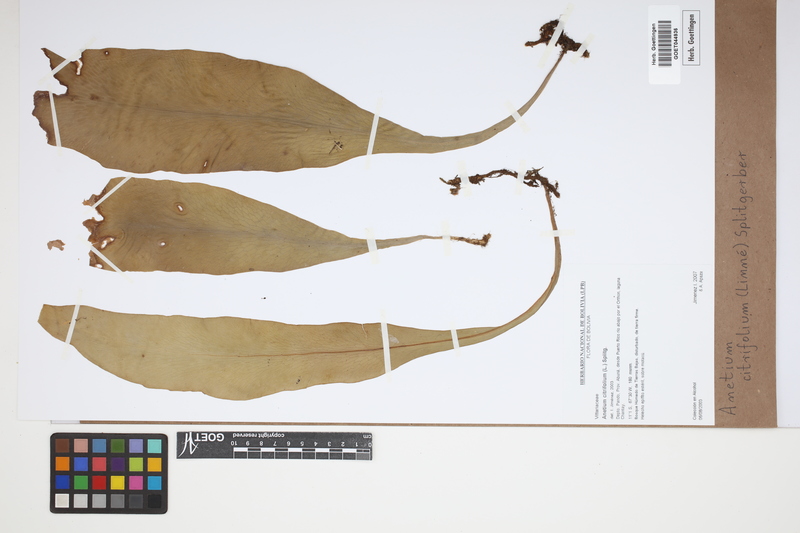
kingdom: Plantae
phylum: Tracheophyta
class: Polypodiopsida
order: Polypodiales
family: Pteridaceae
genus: Polytaenium
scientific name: Polytaenium citrifolium
